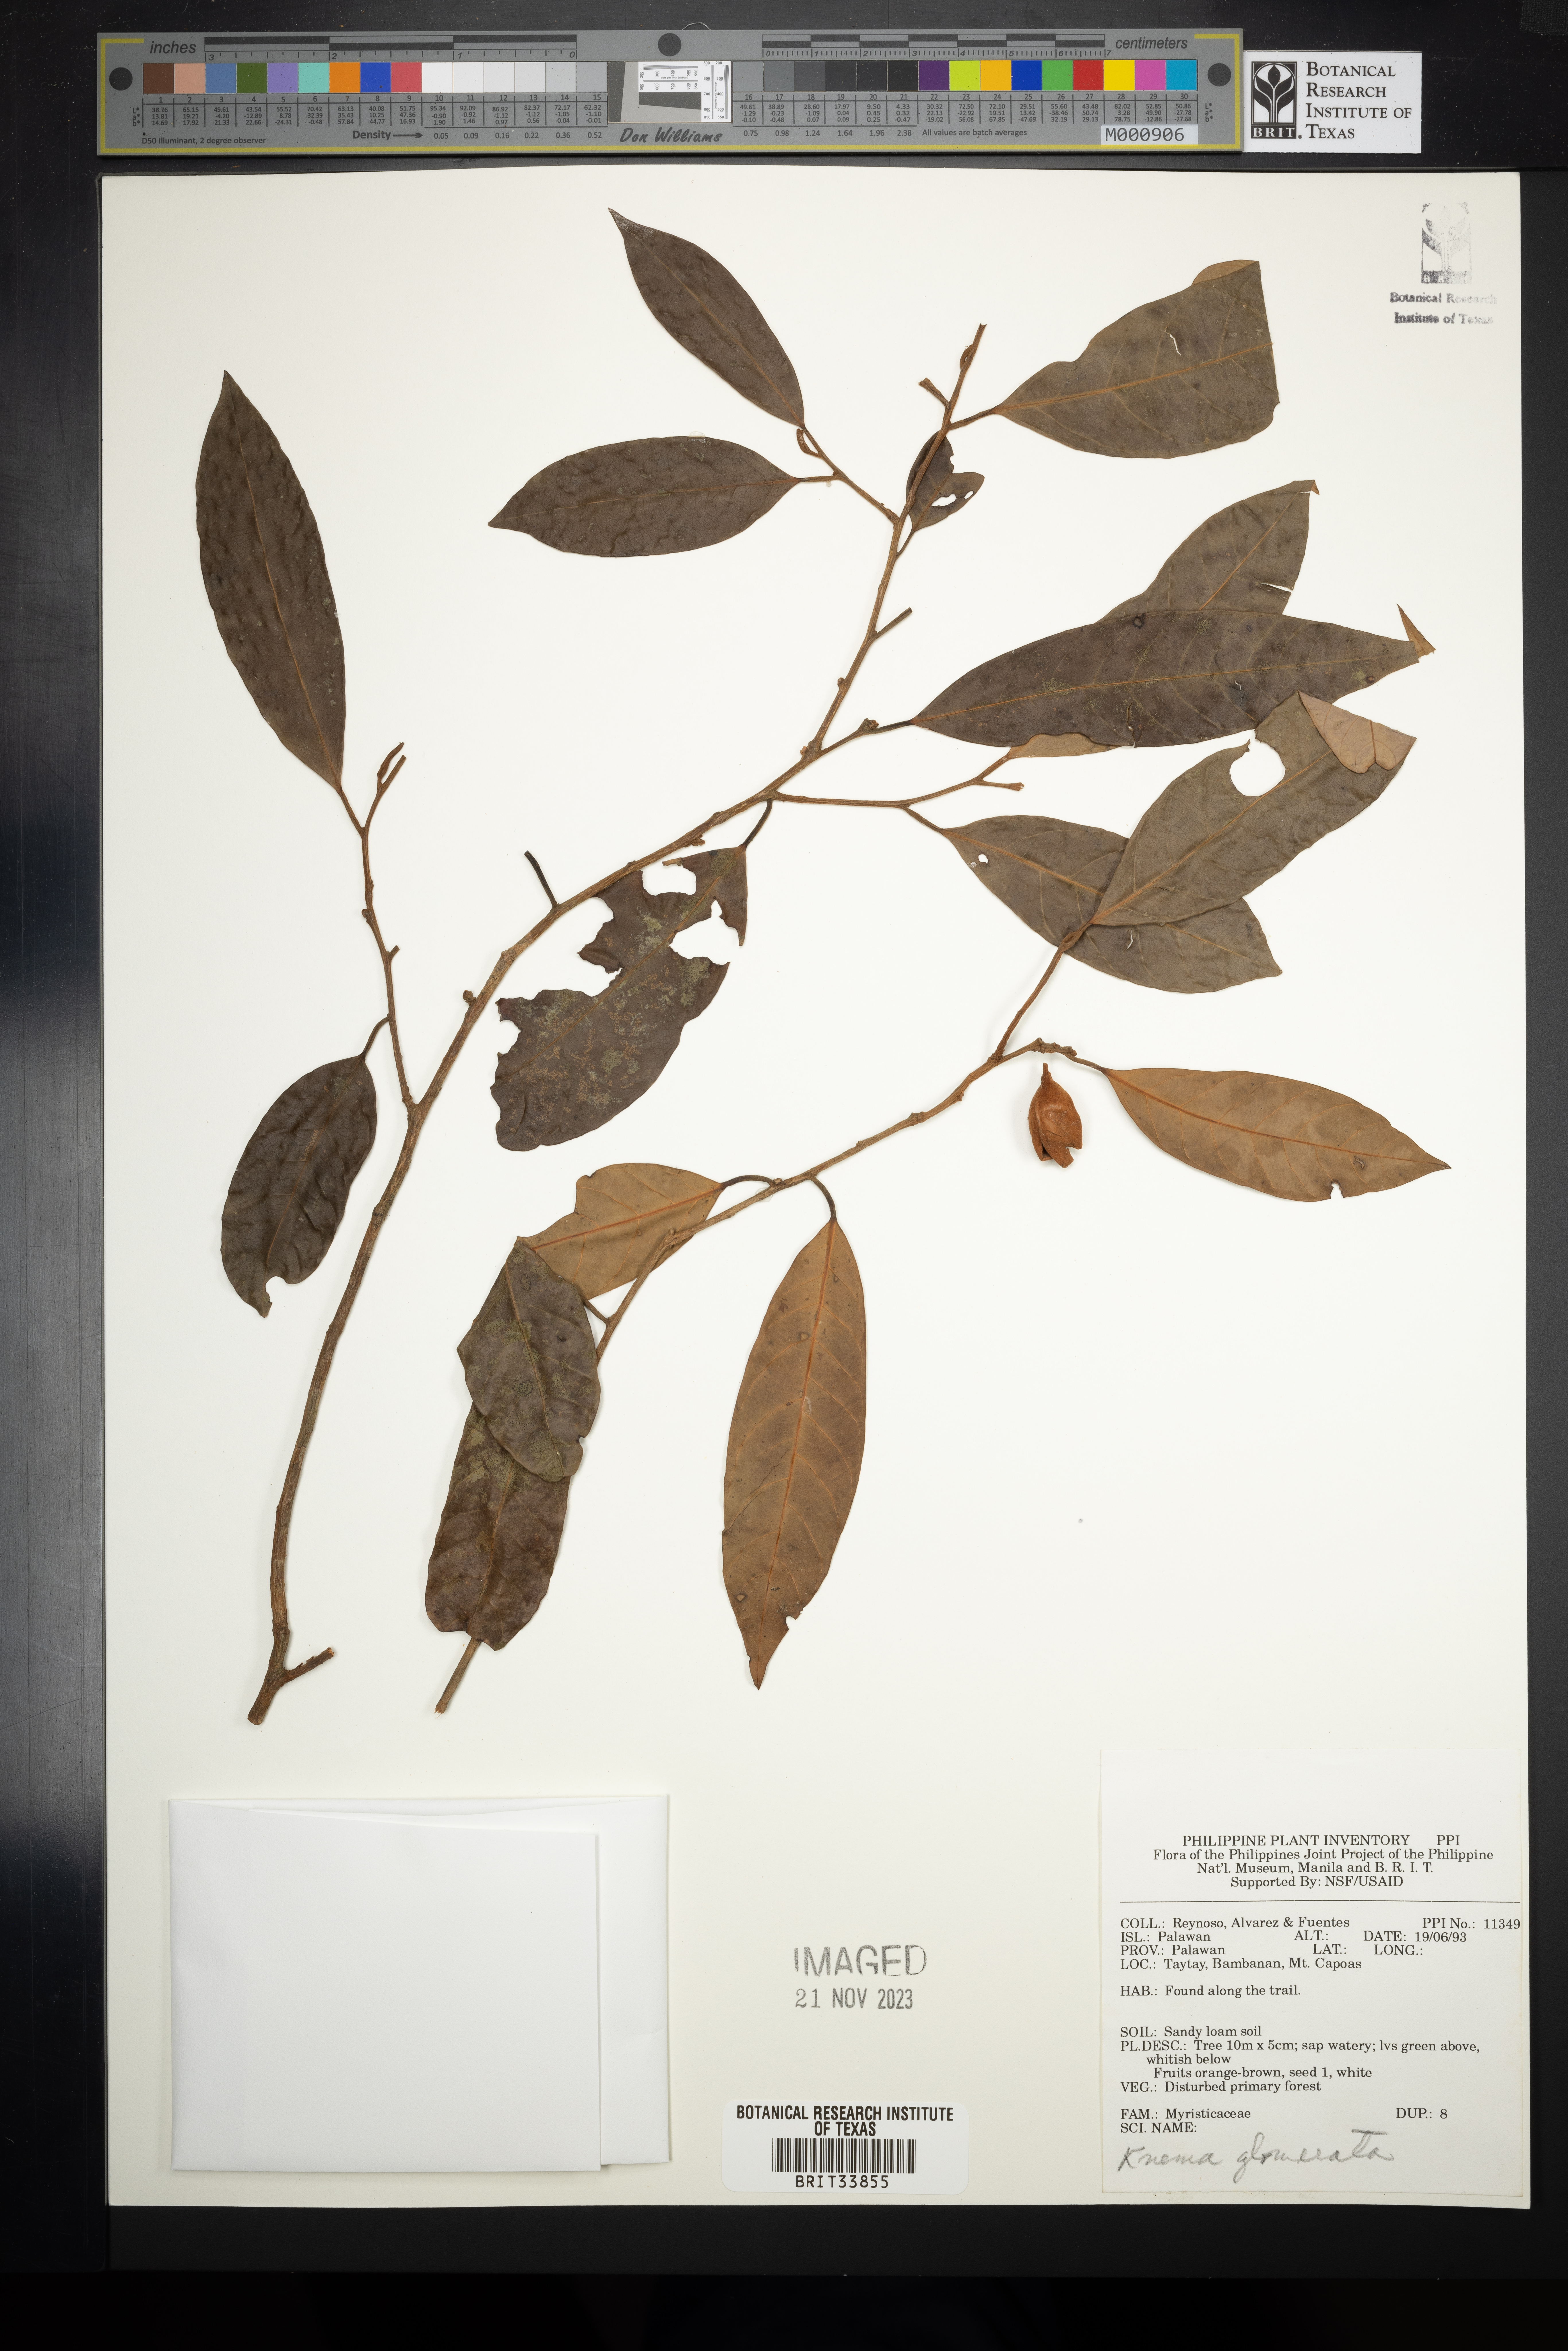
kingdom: Plantae
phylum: Tracheophyta
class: Magnoliopsida
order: Magnoliales
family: Myristicaceae
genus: Knema
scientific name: Knema glomerata
